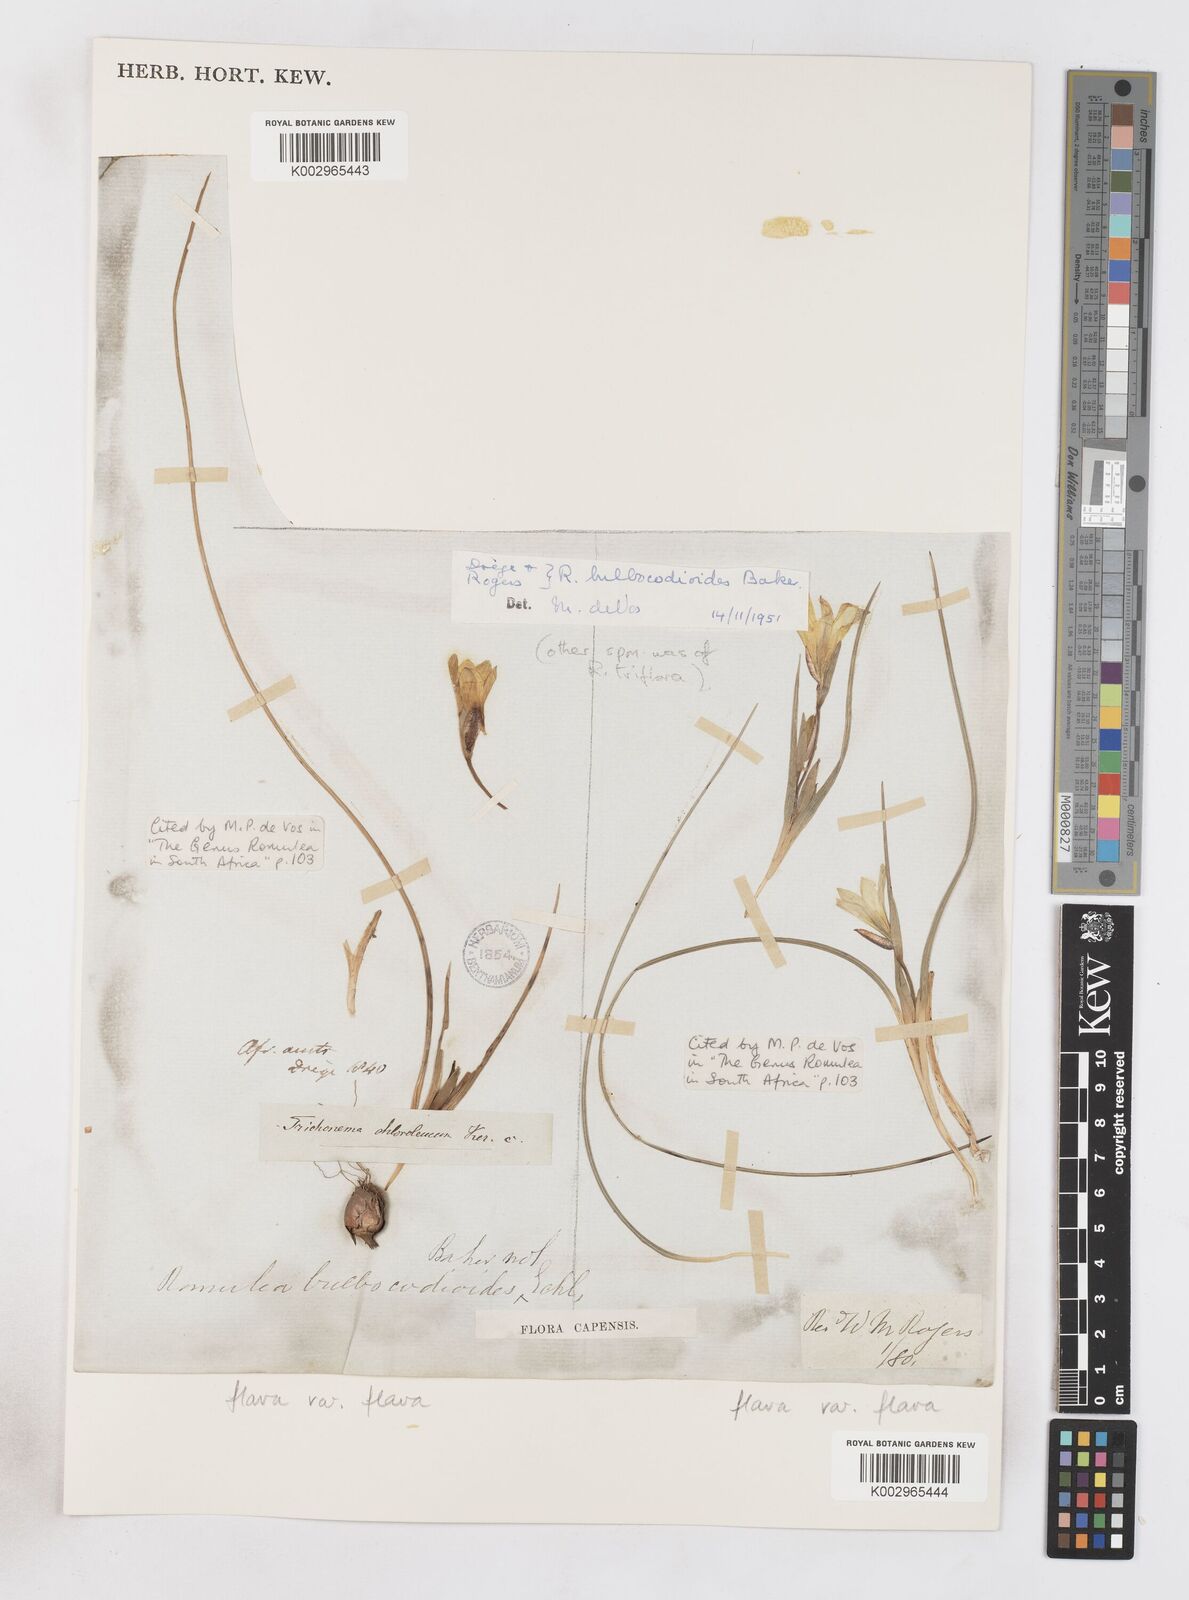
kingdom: Plantae
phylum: Tracheophyta
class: Liliopsida
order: Asparagales
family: Iridaceae
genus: Romulea
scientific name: Romulea flava
